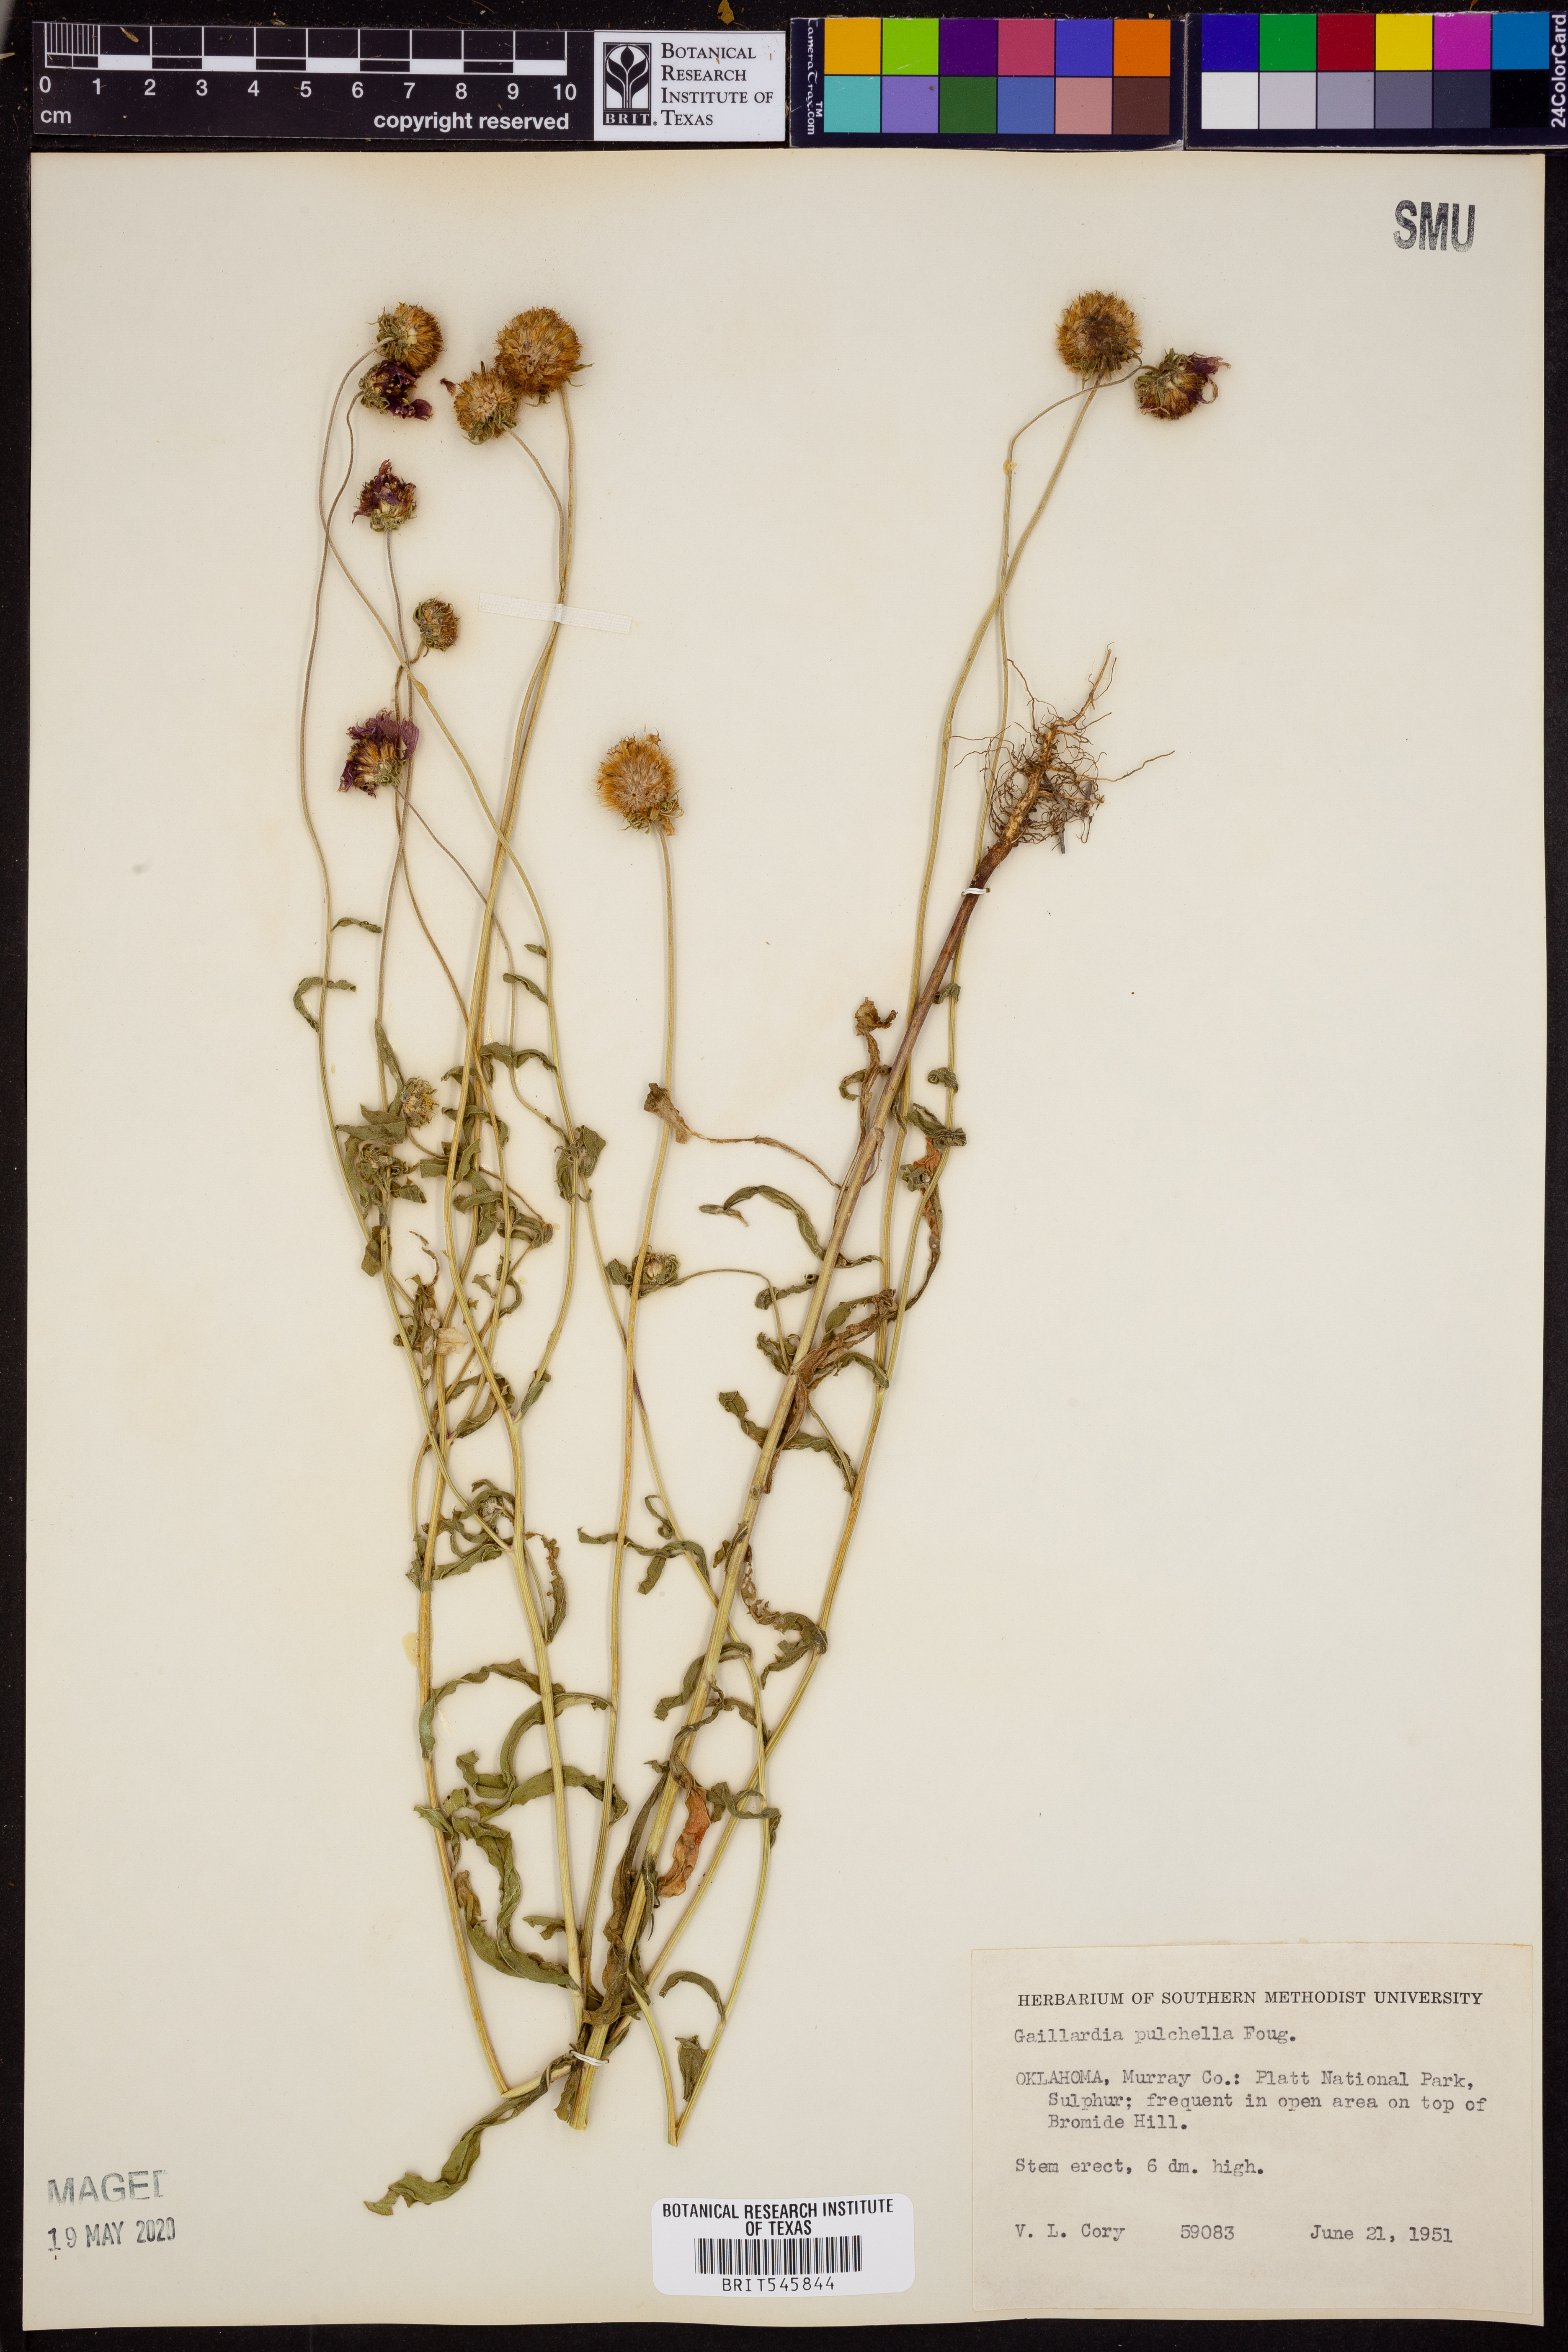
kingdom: Plantae
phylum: Tracheophyta
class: Magnoliopsida
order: Asterales
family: Asteraceae
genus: Gaillardia
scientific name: Gaillardia pulchella
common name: Firewheel
